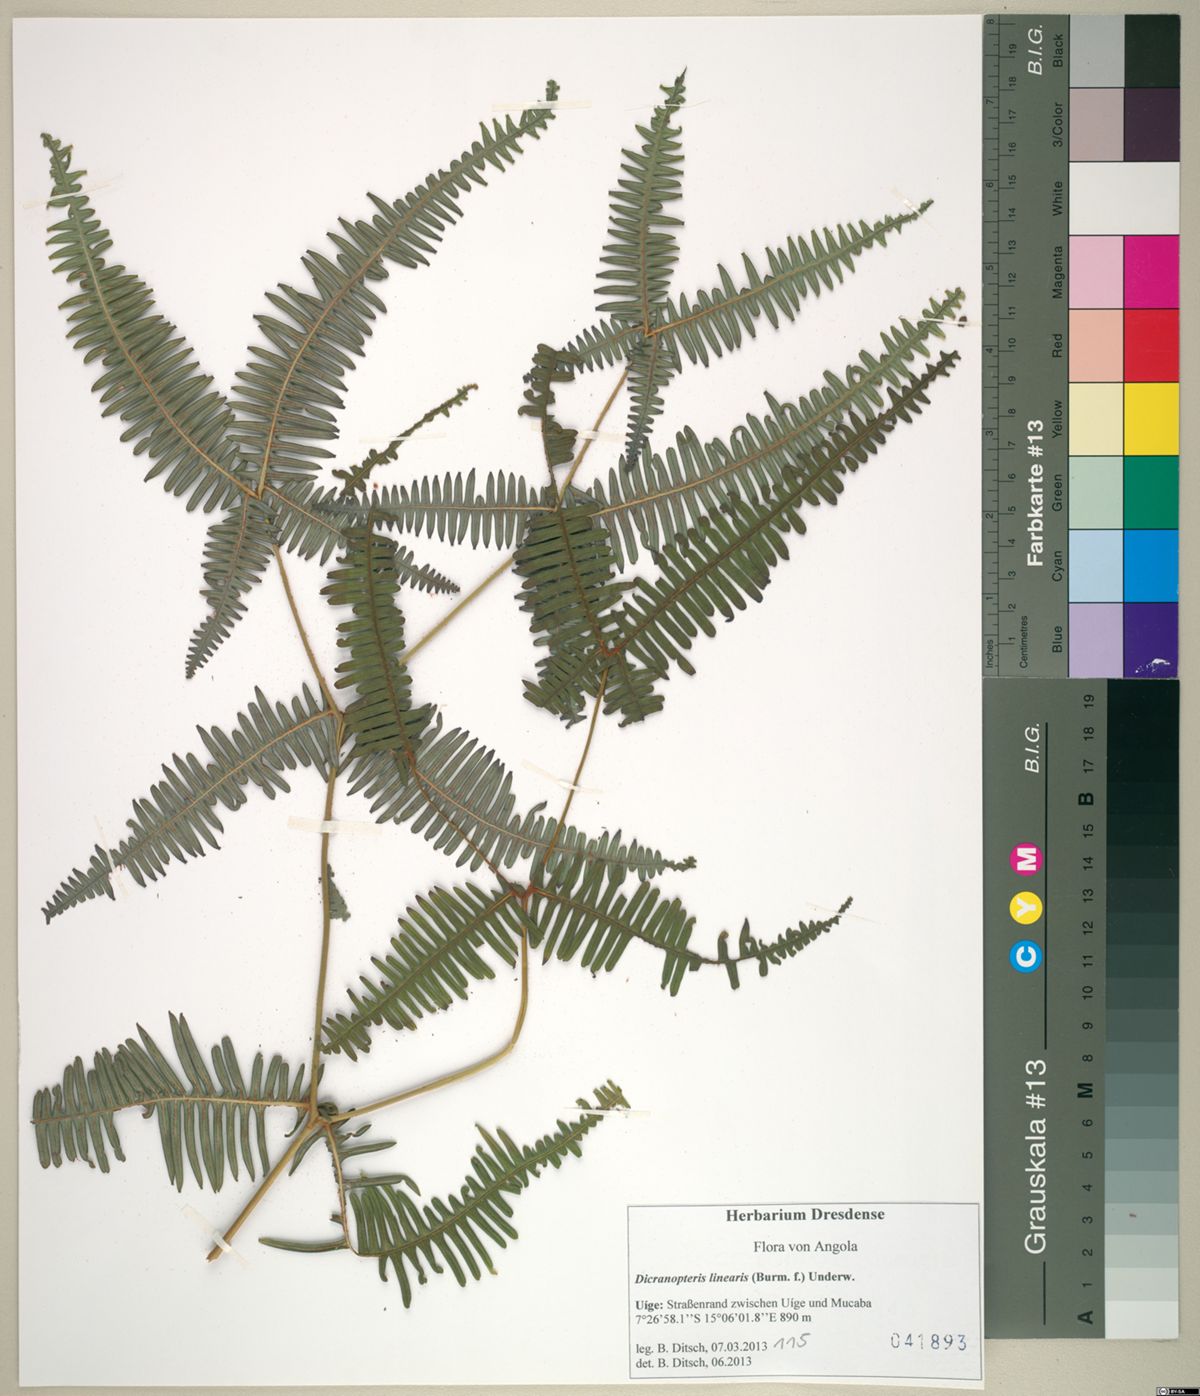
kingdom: Plantae
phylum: Tracheophyta
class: Polypodiopsida
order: Gleicheniales
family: Gleicheniaceae
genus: Dicranopteris
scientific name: Dicranopteris linearis
